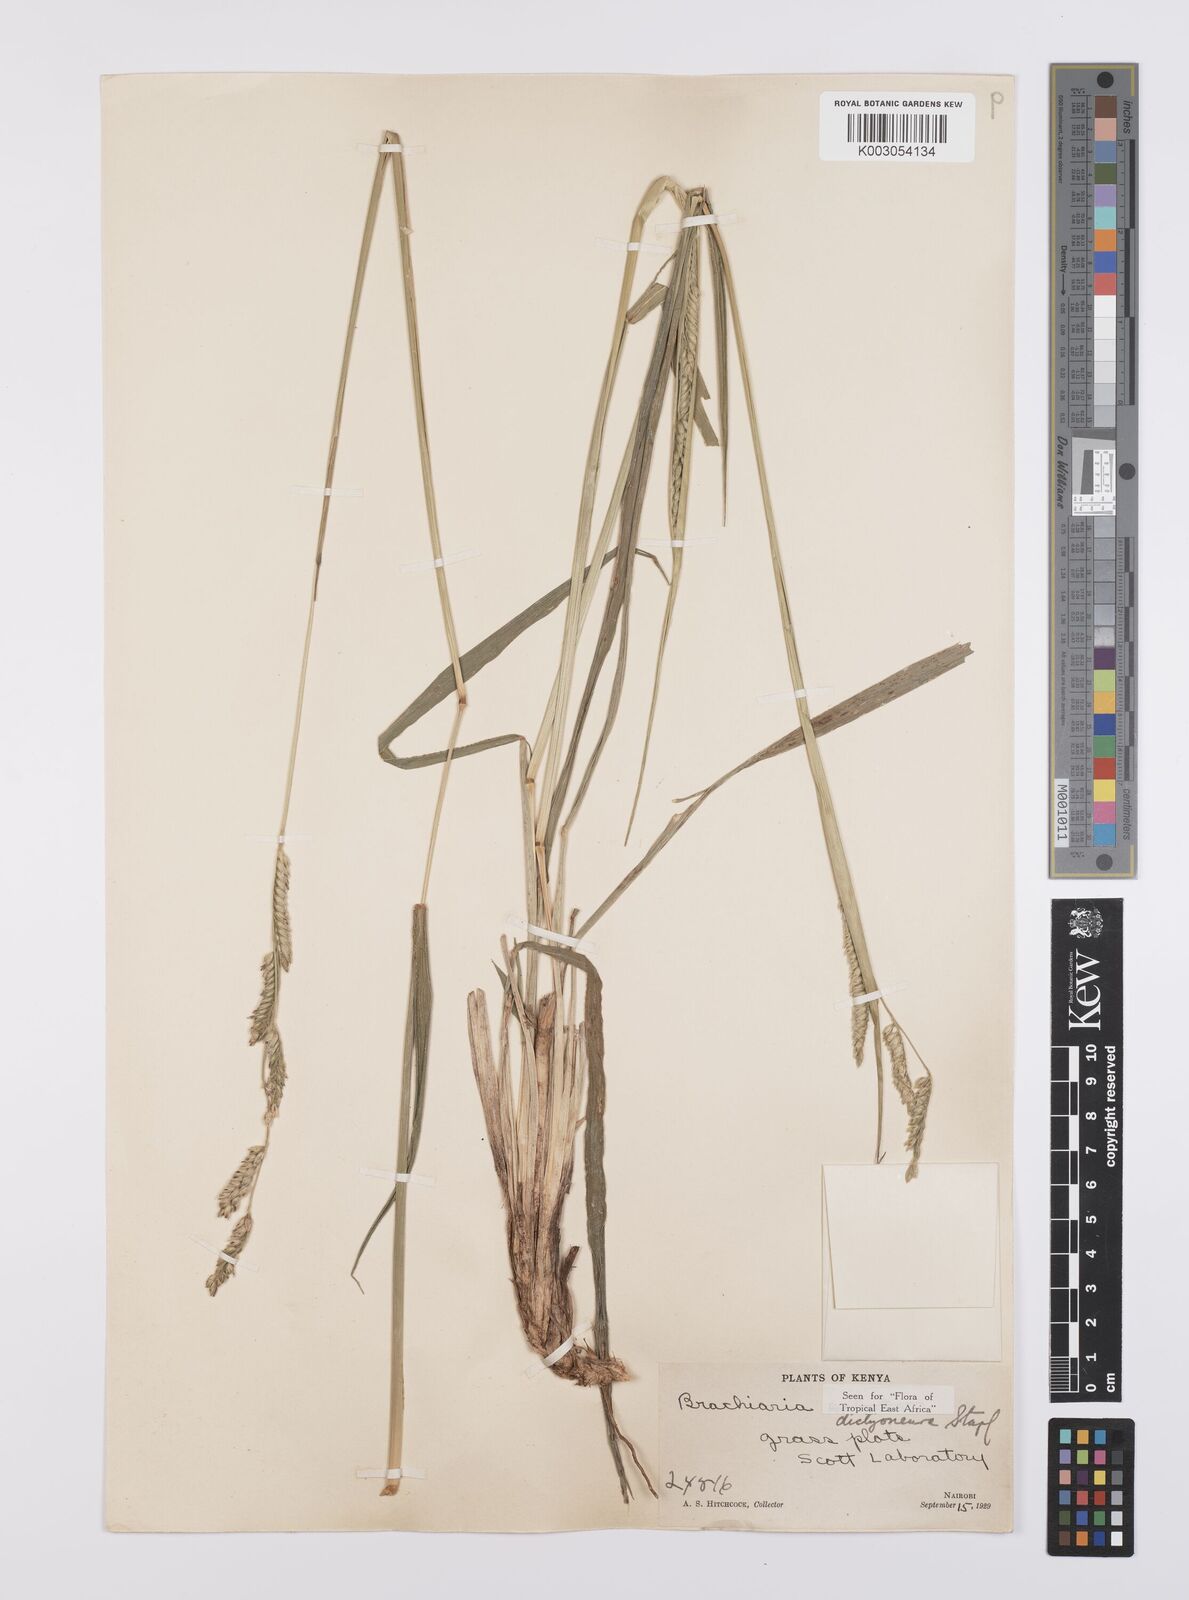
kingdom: Plantae
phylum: Tracheophyta
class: Liliopsida
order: Poales
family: Poaceae
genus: Urochloa
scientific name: Urochloa dictyoneura
